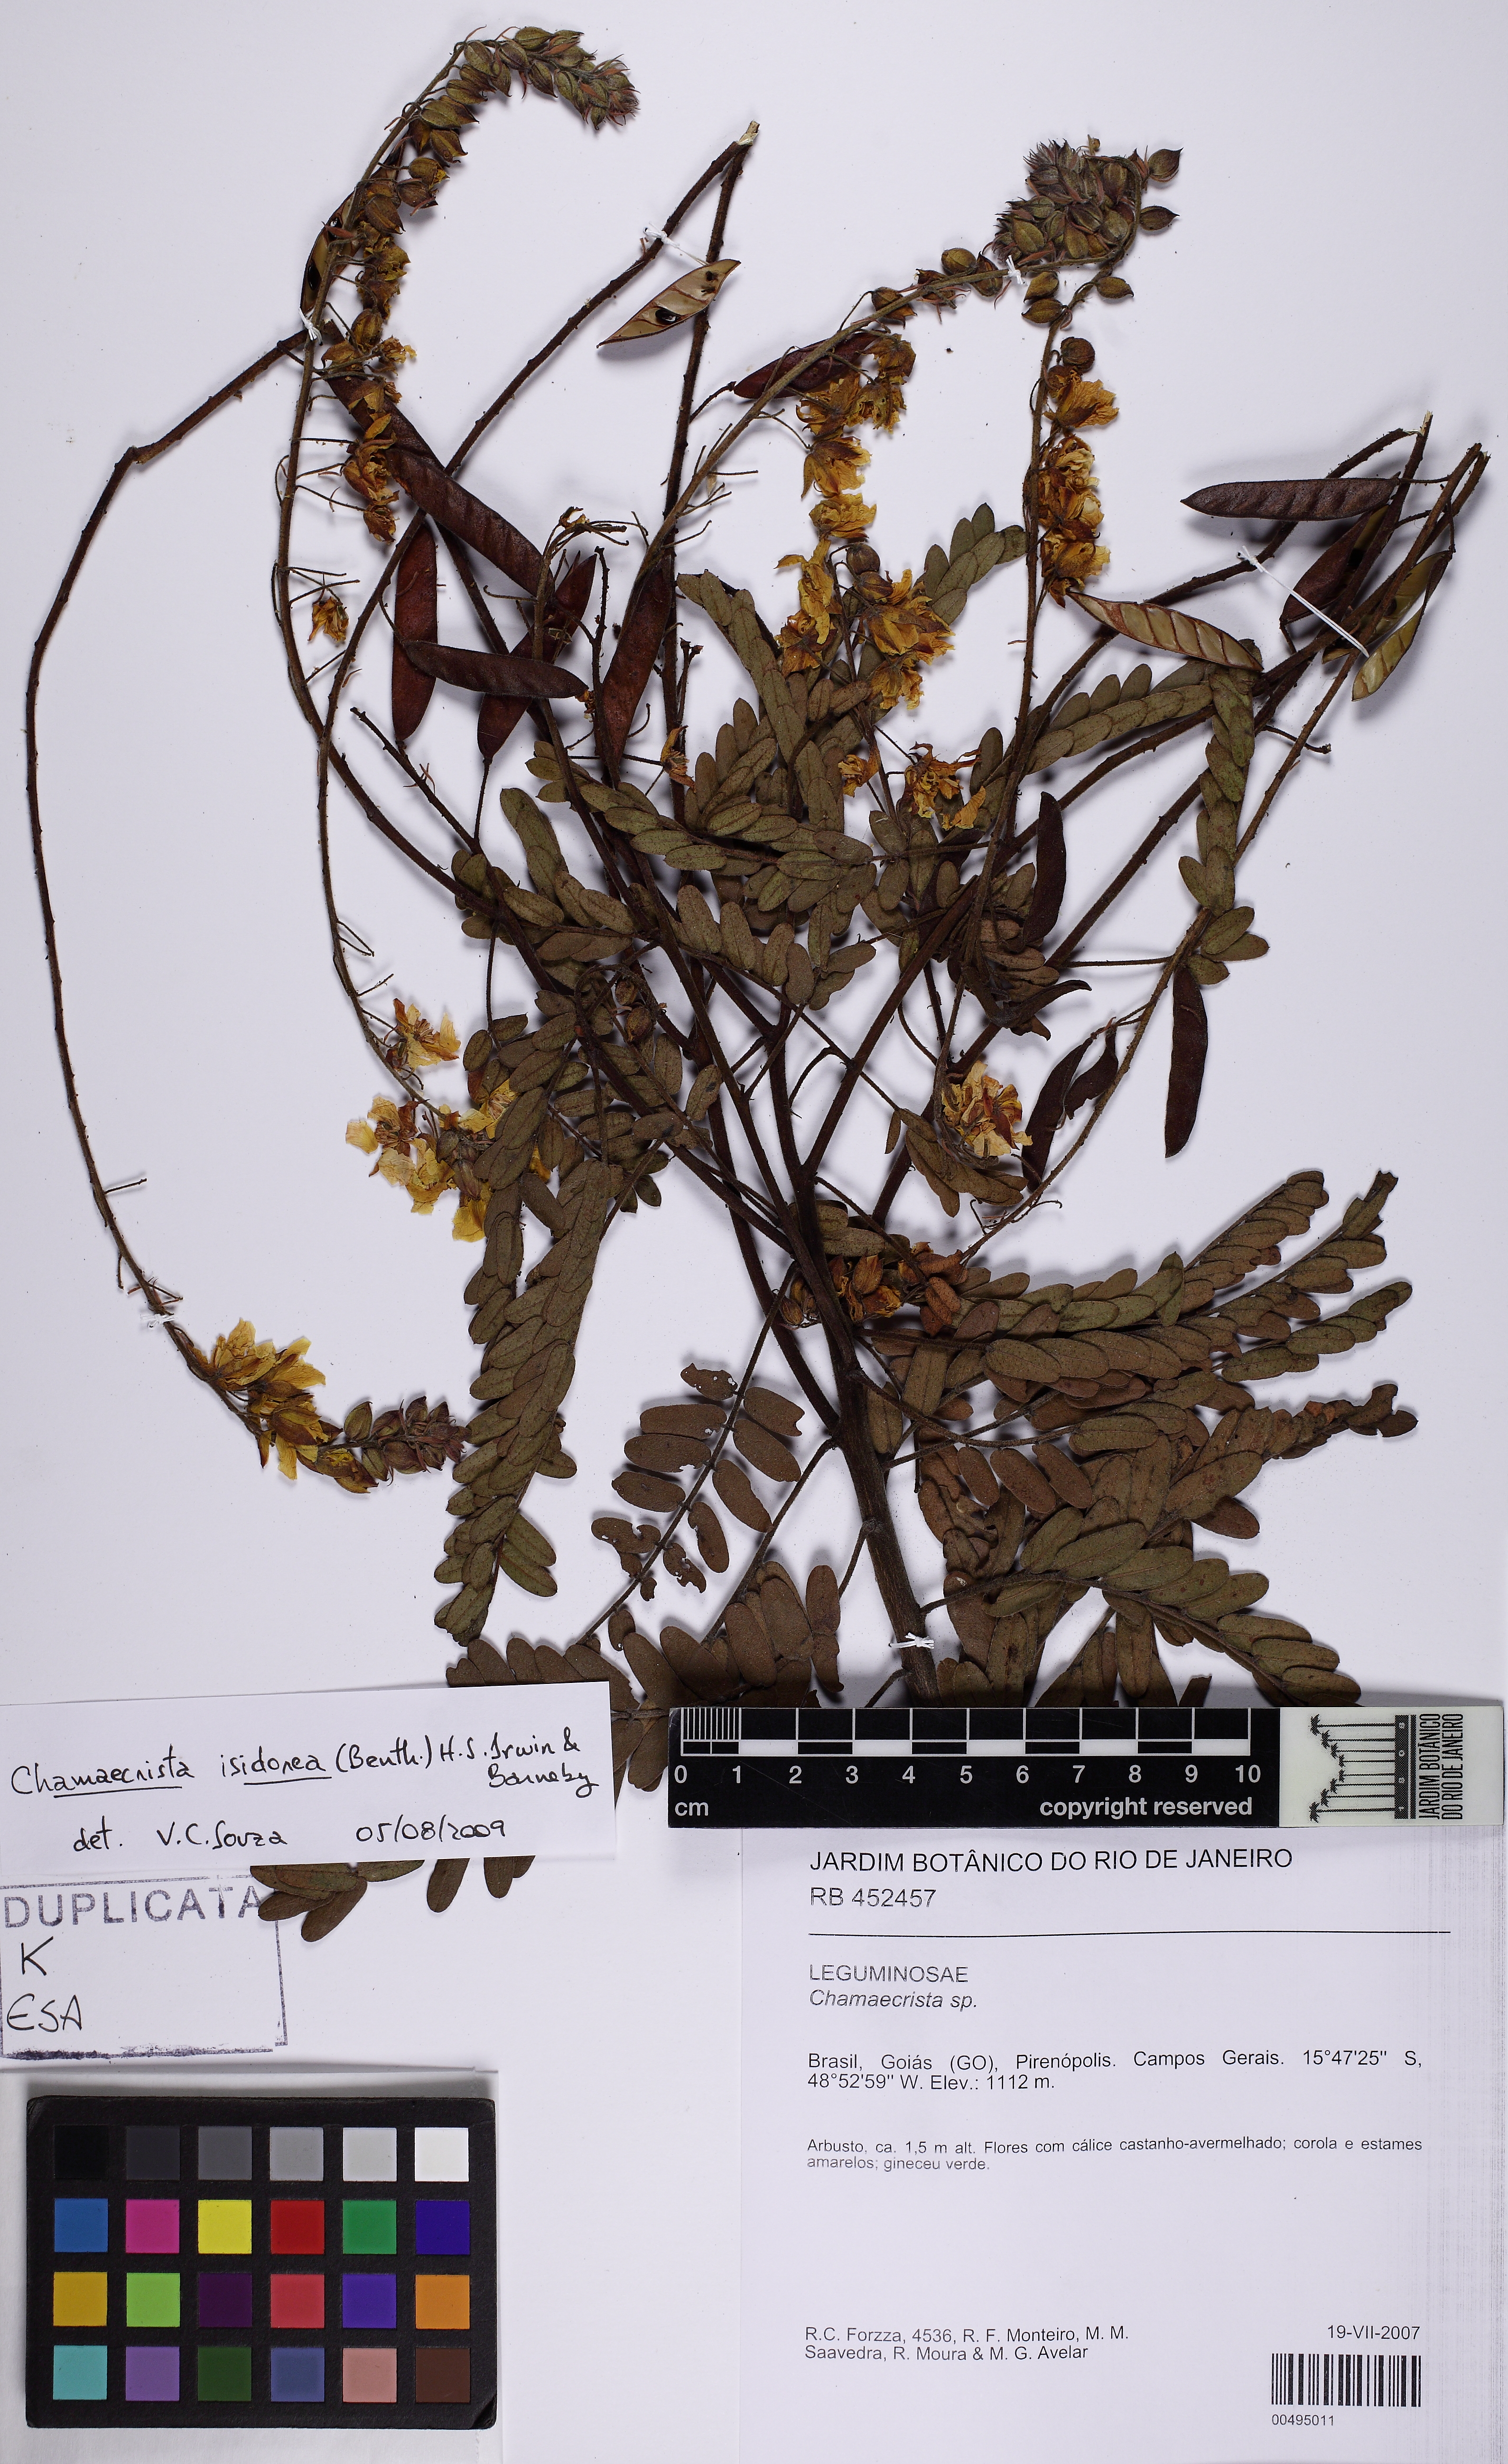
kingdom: Plantae
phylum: Tracheophyta
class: Magnoliopsida
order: Fabales
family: Fabaceae
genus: Chamaecrista
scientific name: Chamaecrista isidorea
